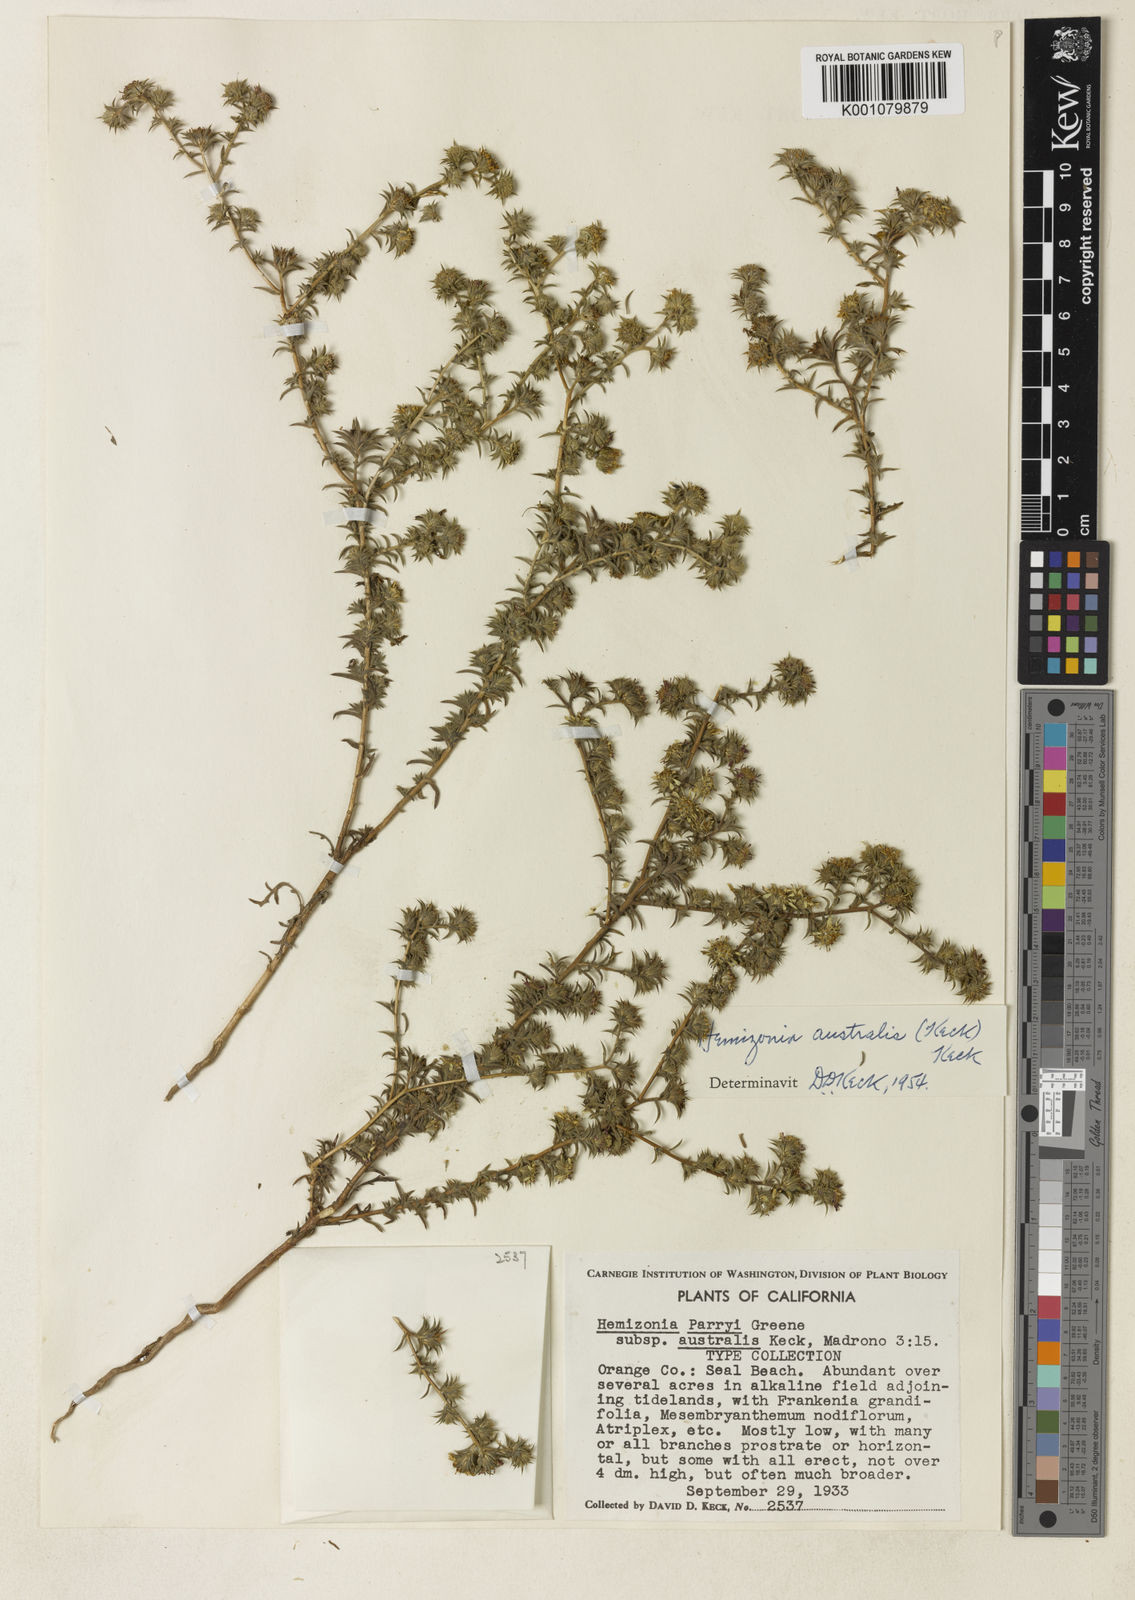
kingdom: Plantae
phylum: Tracheophyta
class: Magnoliopsida
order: Asterales
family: Asteraceae
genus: Centromadia
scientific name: Centromadia parryi
